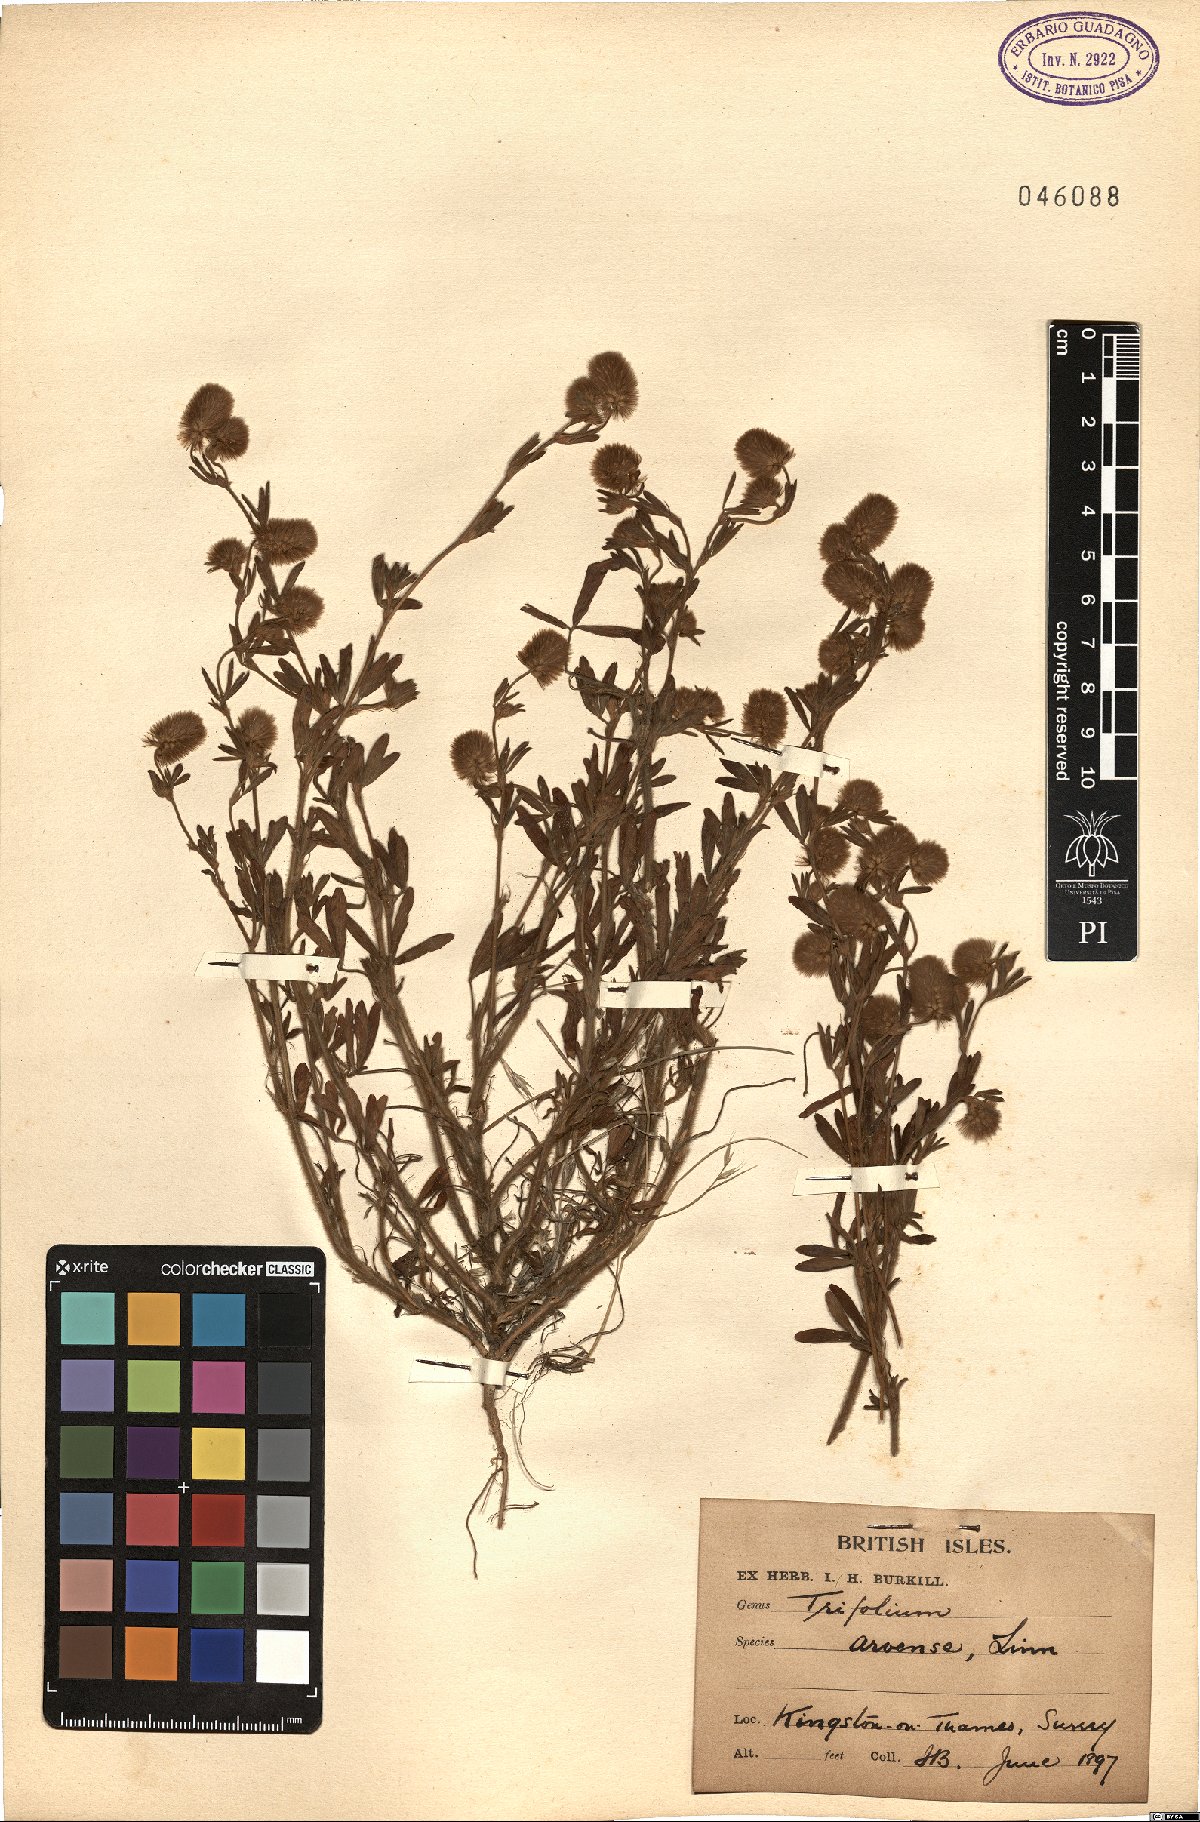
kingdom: Plantae
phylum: Tracheophyta
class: Magnoliopsida
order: Fabales
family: Fabaceae
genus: Trifolium
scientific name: Trifolium arvense
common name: Hare's-foot clover
